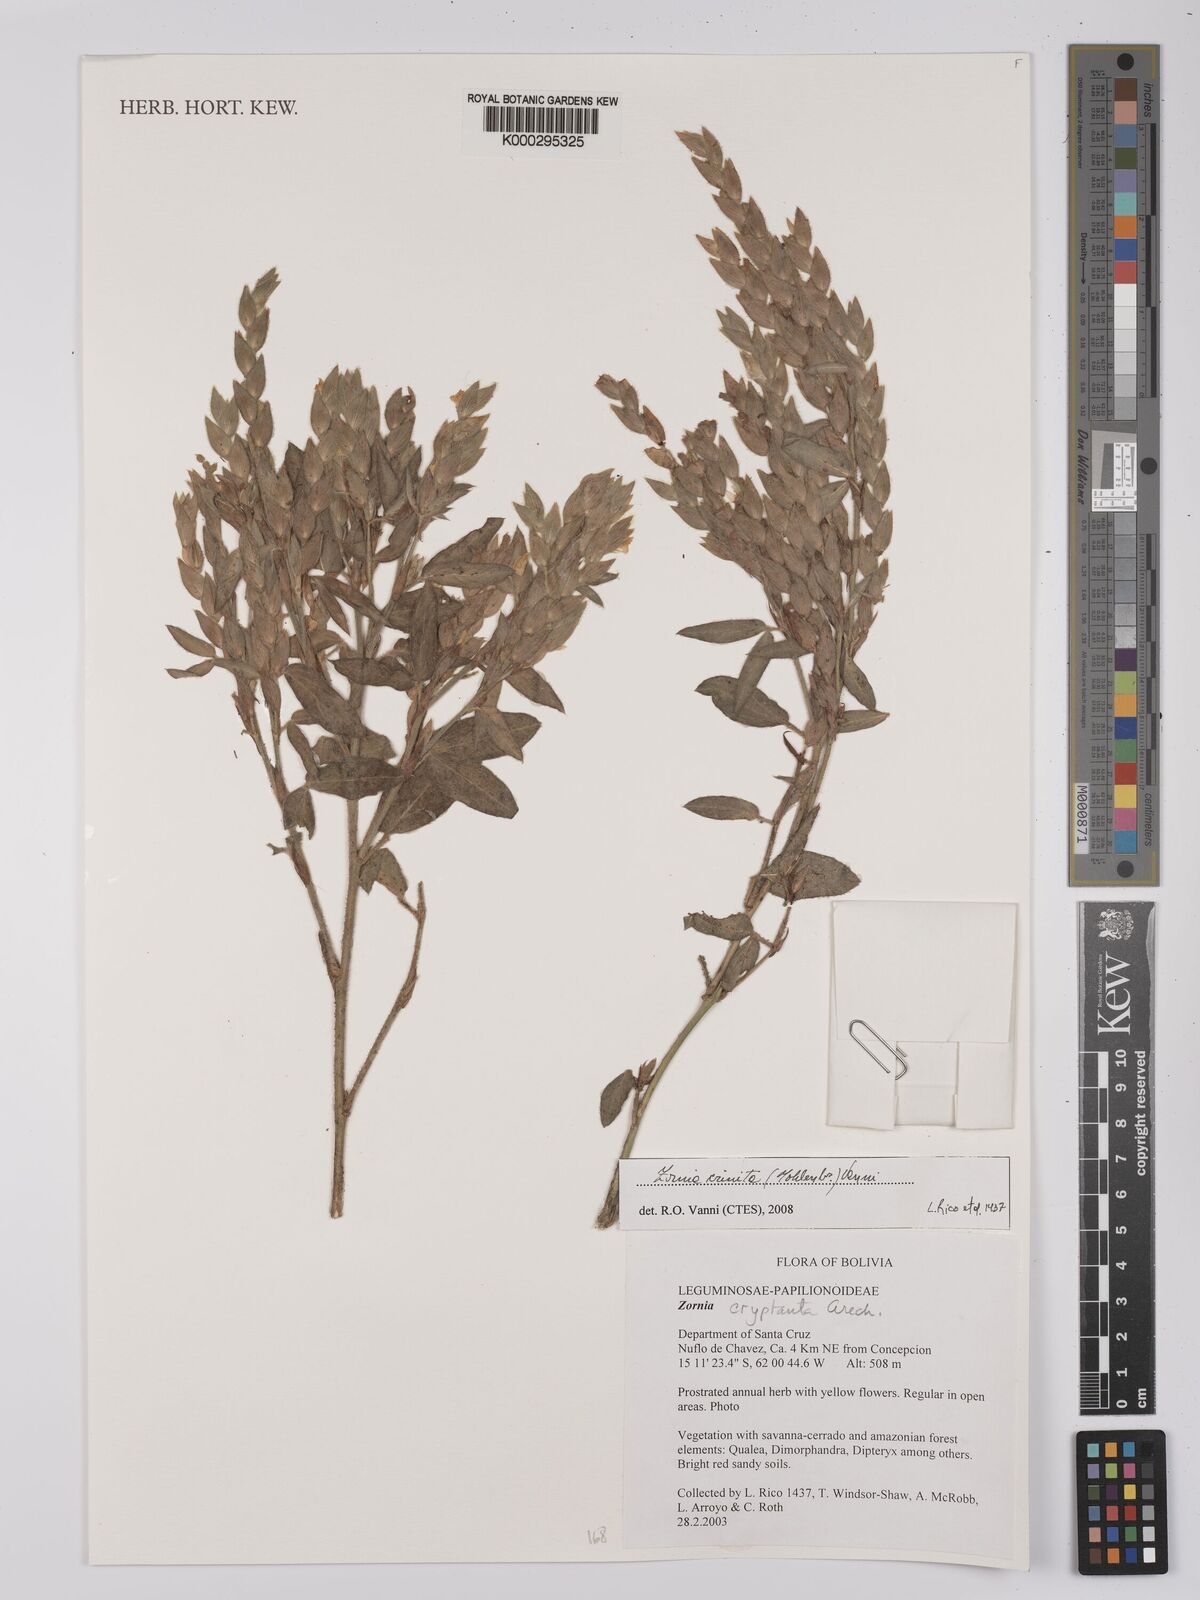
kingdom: Plantae
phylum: Tracheophyta
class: Magnoliopsida
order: Fabales
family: Fabaceae
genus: Zornia
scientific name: Zornia cryptantha
